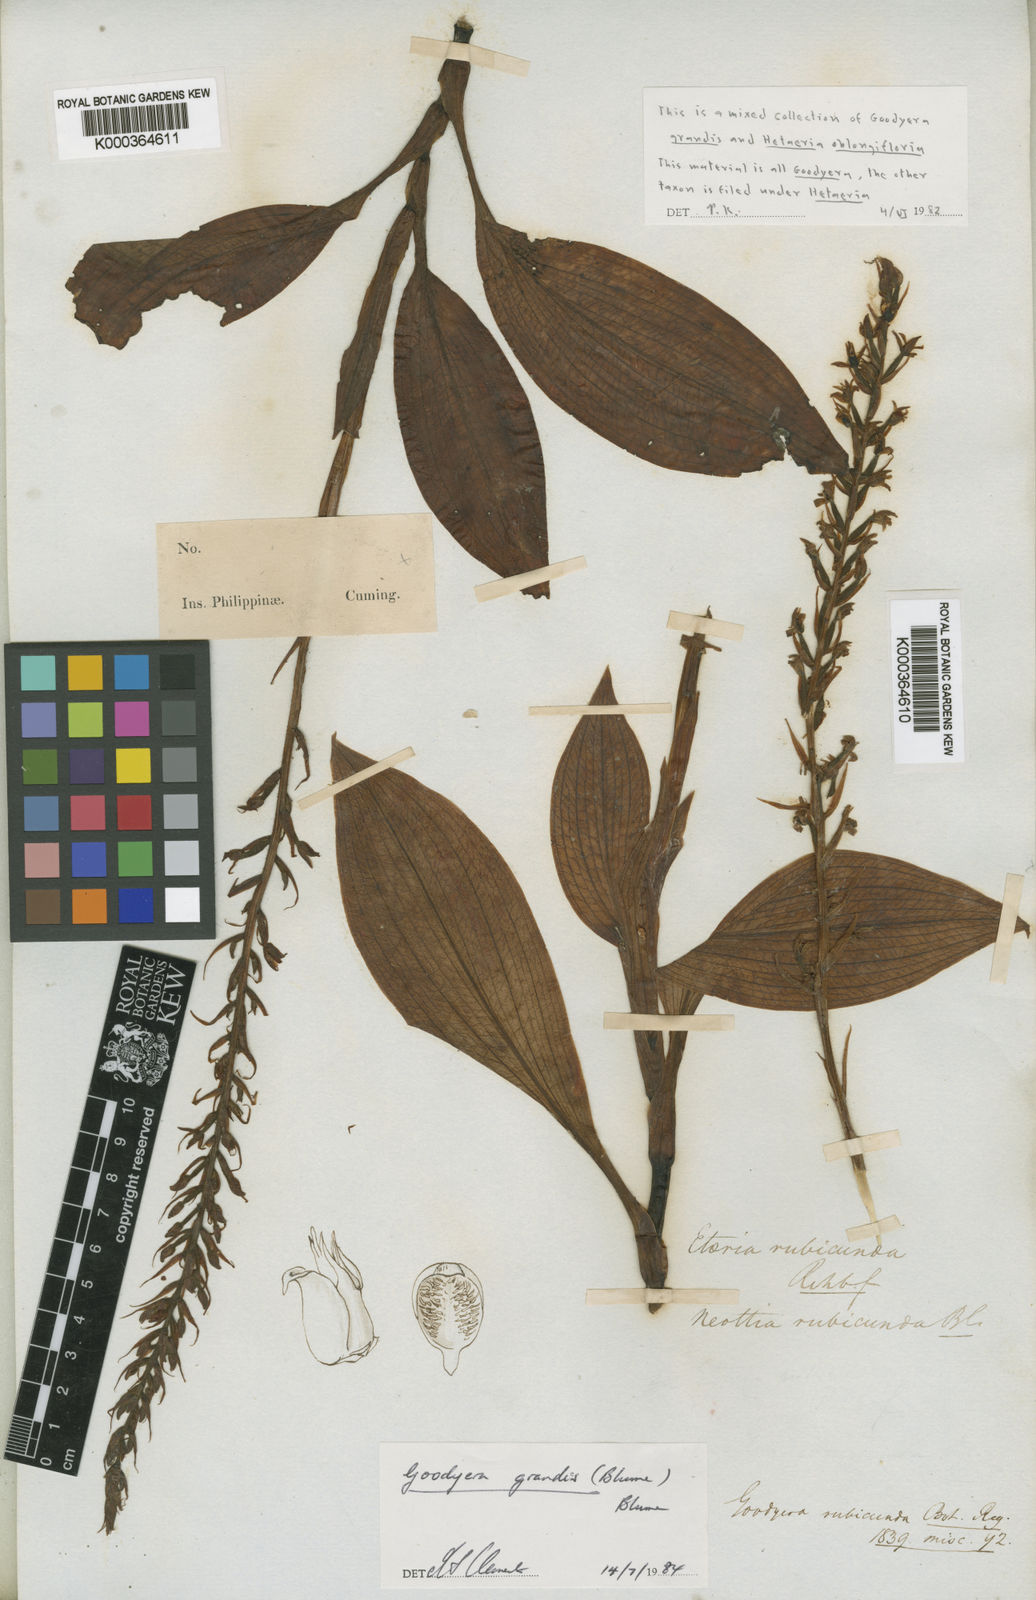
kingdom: Plantae
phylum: Tracheophyta
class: Liliopsida
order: Asparagales
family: Orchidaceae
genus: Goodyera
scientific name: Goodyera rubicunda
